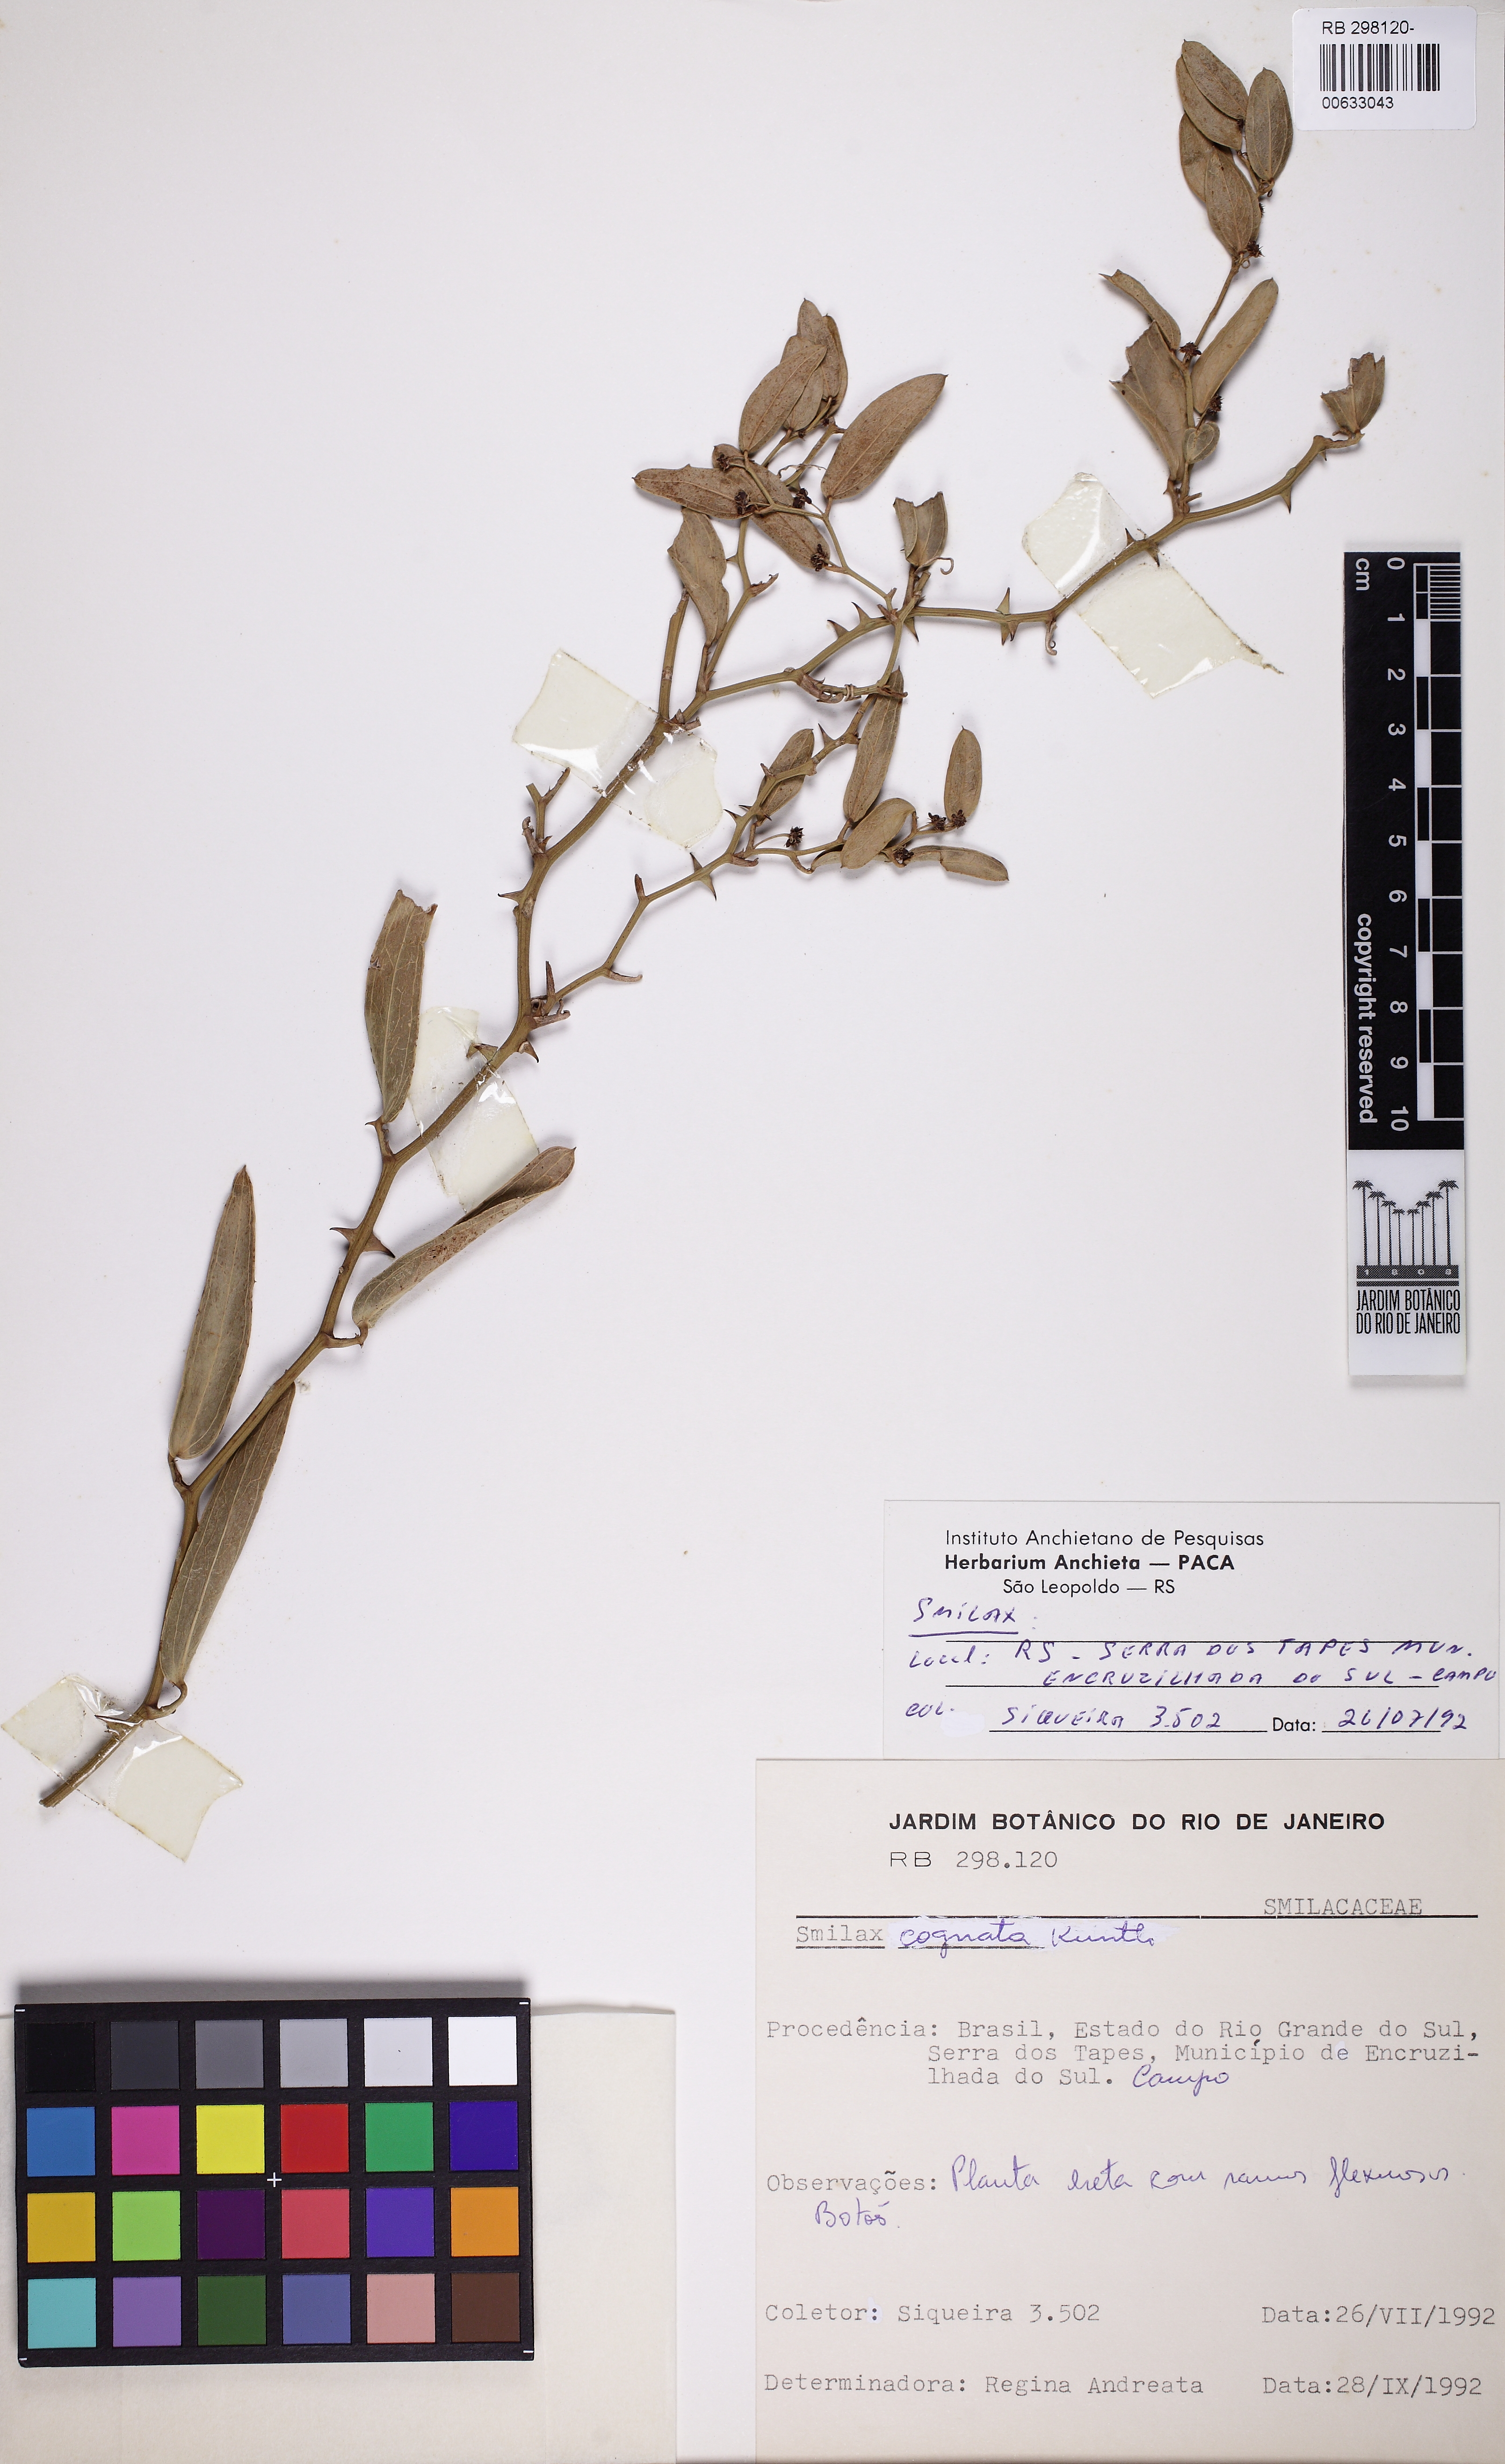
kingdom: Plantae
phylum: Tracheophyta
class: Liliopsida
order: Liliales
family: Smilacaceae
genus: Smilax
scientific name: Smilax cognata
